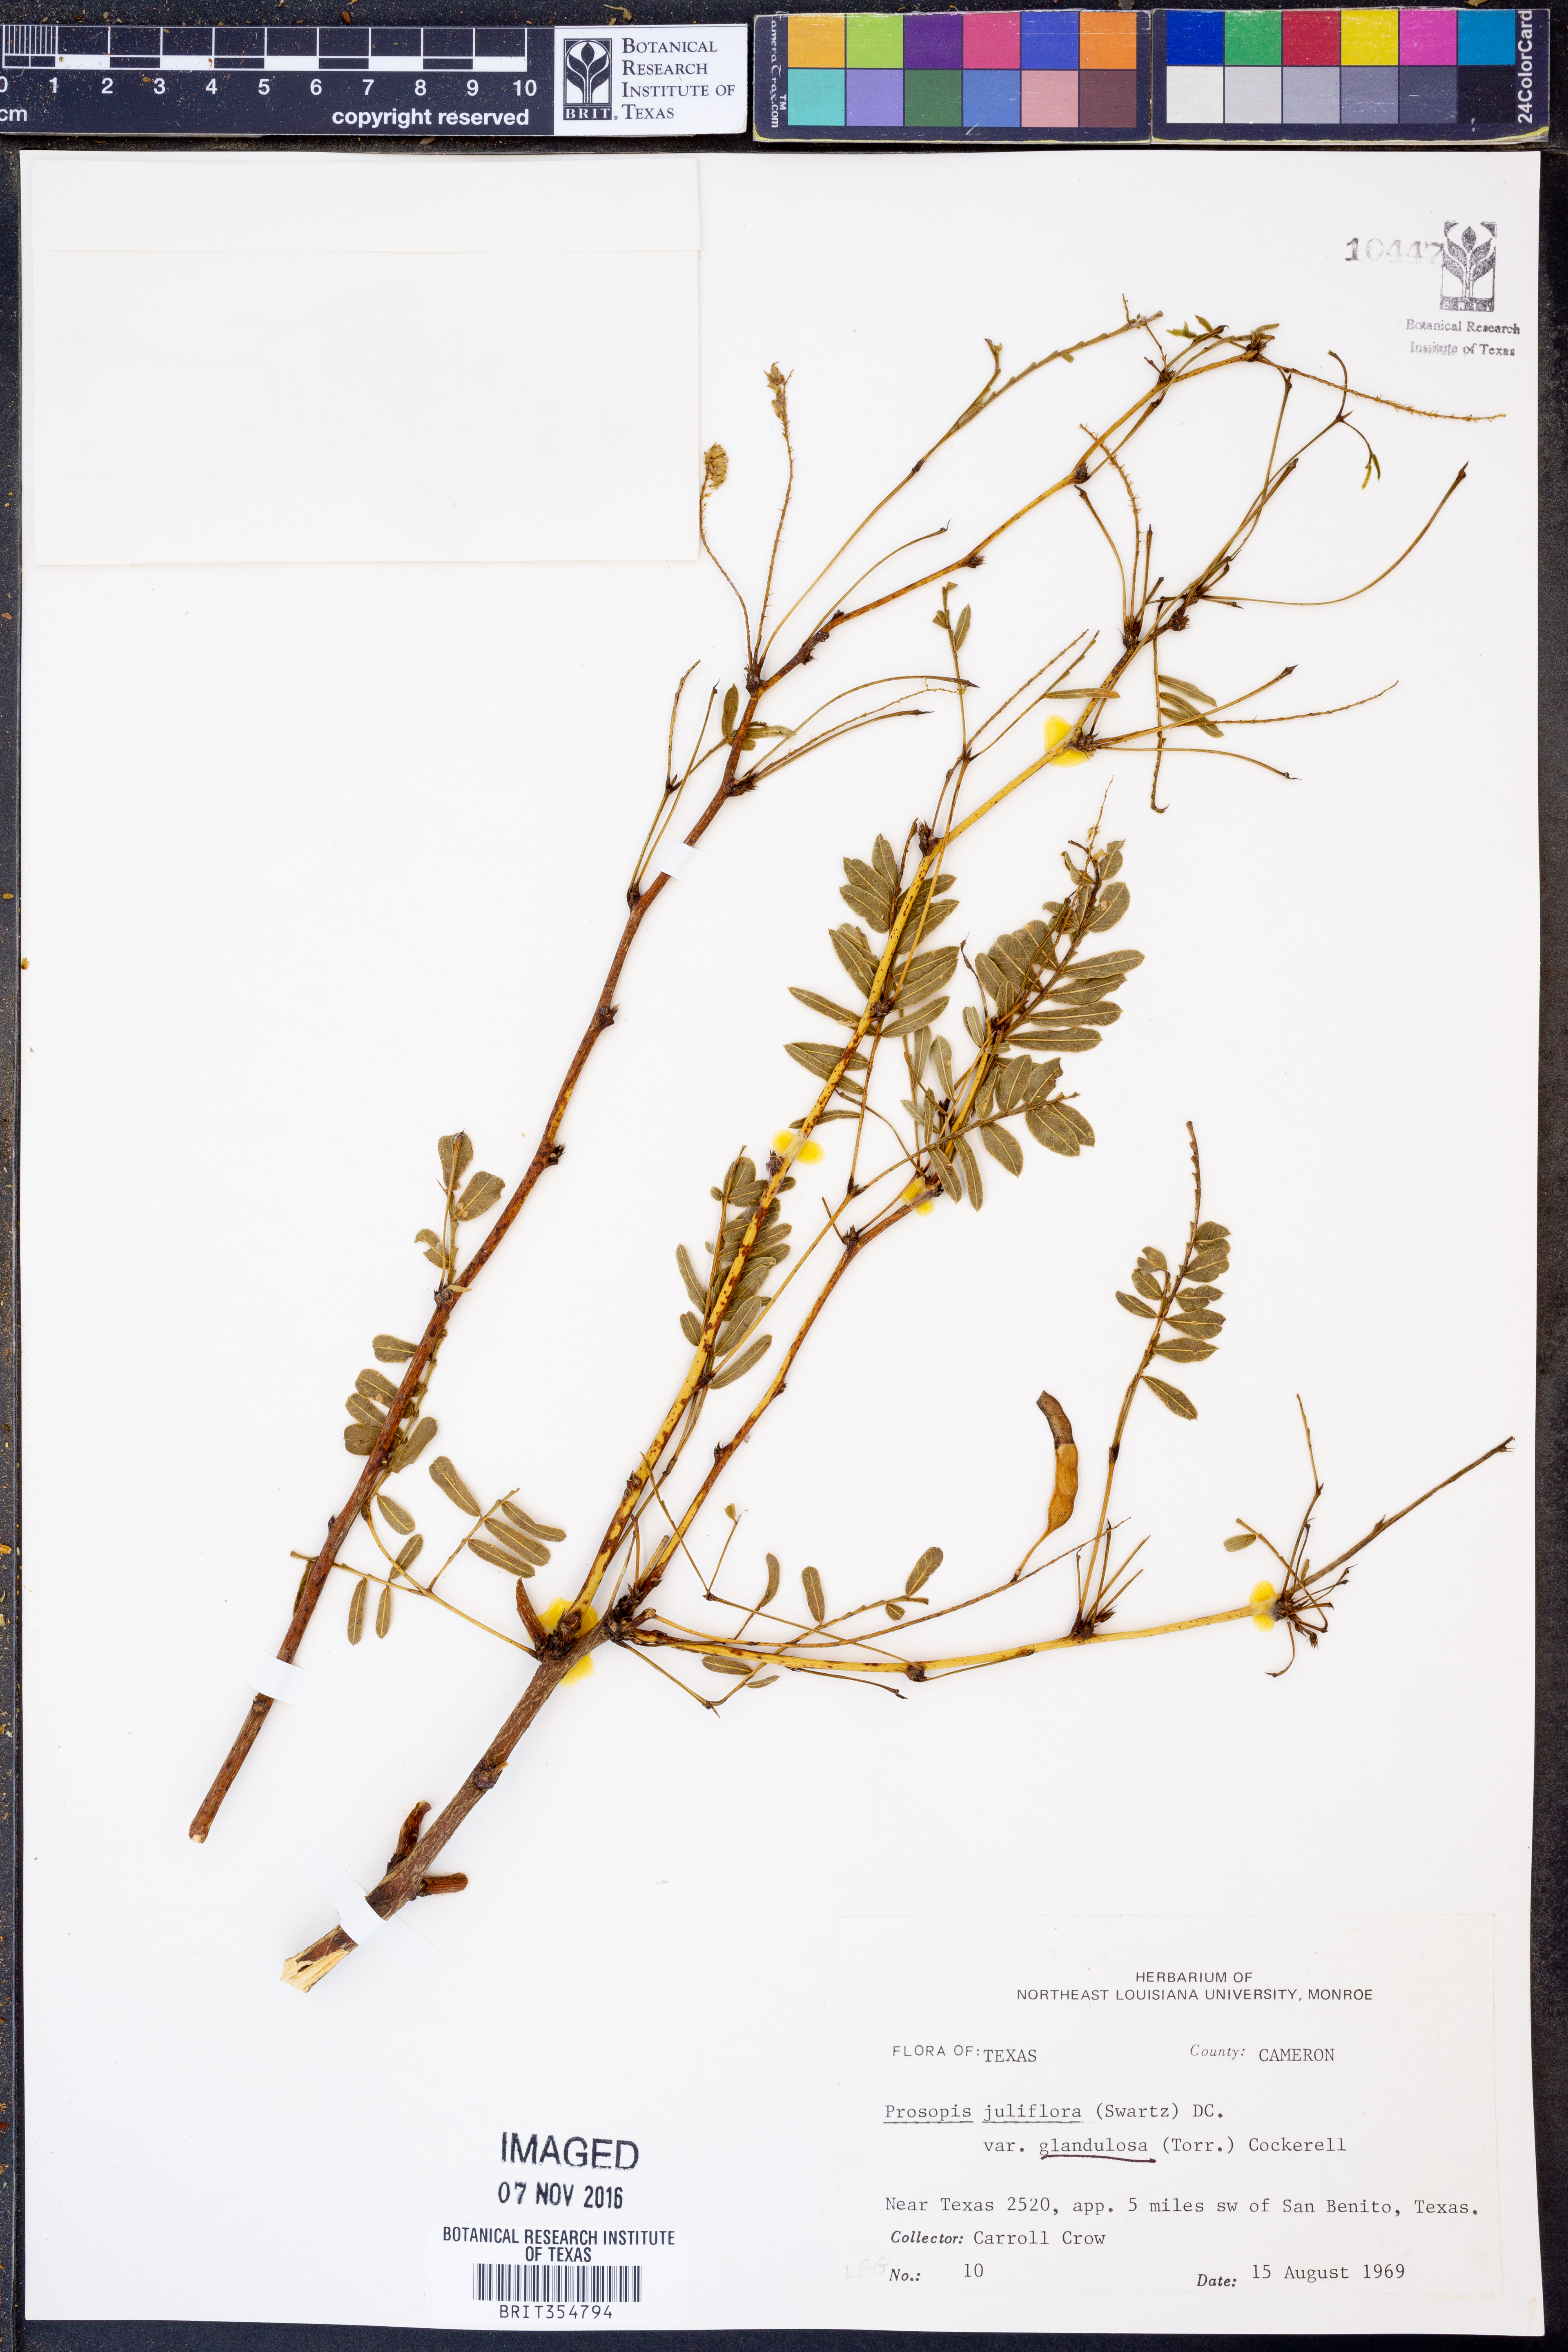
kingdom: Plantae
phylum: Tracheophyta
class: Magnoliopsida
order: Fabales
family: Fabaceae
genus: Prosopis
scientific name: Prosopis glandulosa
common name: Honey mesquite
